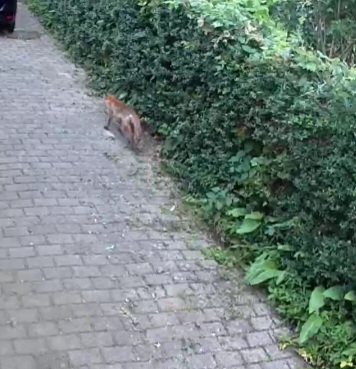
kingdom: Animalia
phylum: Chordata
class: Mammalia
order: Carnivora
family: Canidae
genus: Vulpes
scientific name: Vulpes vulpes
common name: Ræv
